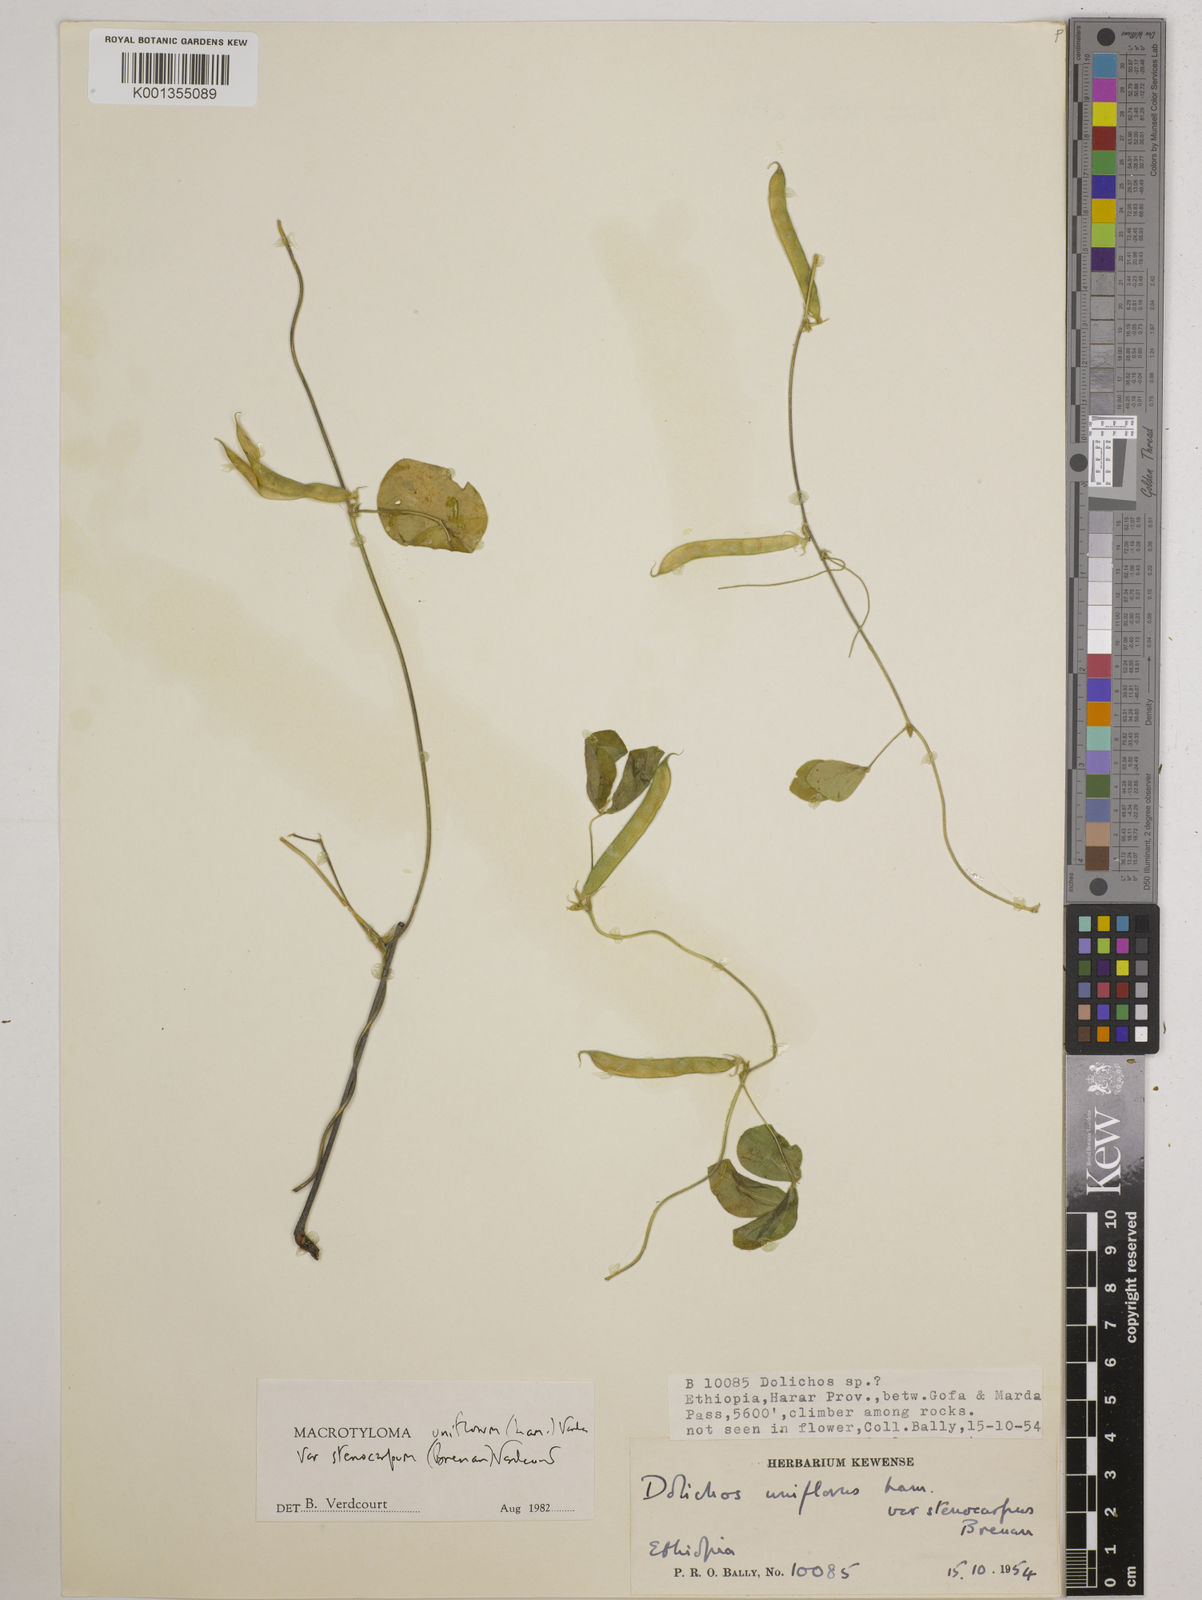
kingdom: Plantae
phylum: Tracheophyta
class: Magnoliopsida
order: Fabales
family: Fabaceae
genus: Macrotyloma
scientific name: Macrotyloma
